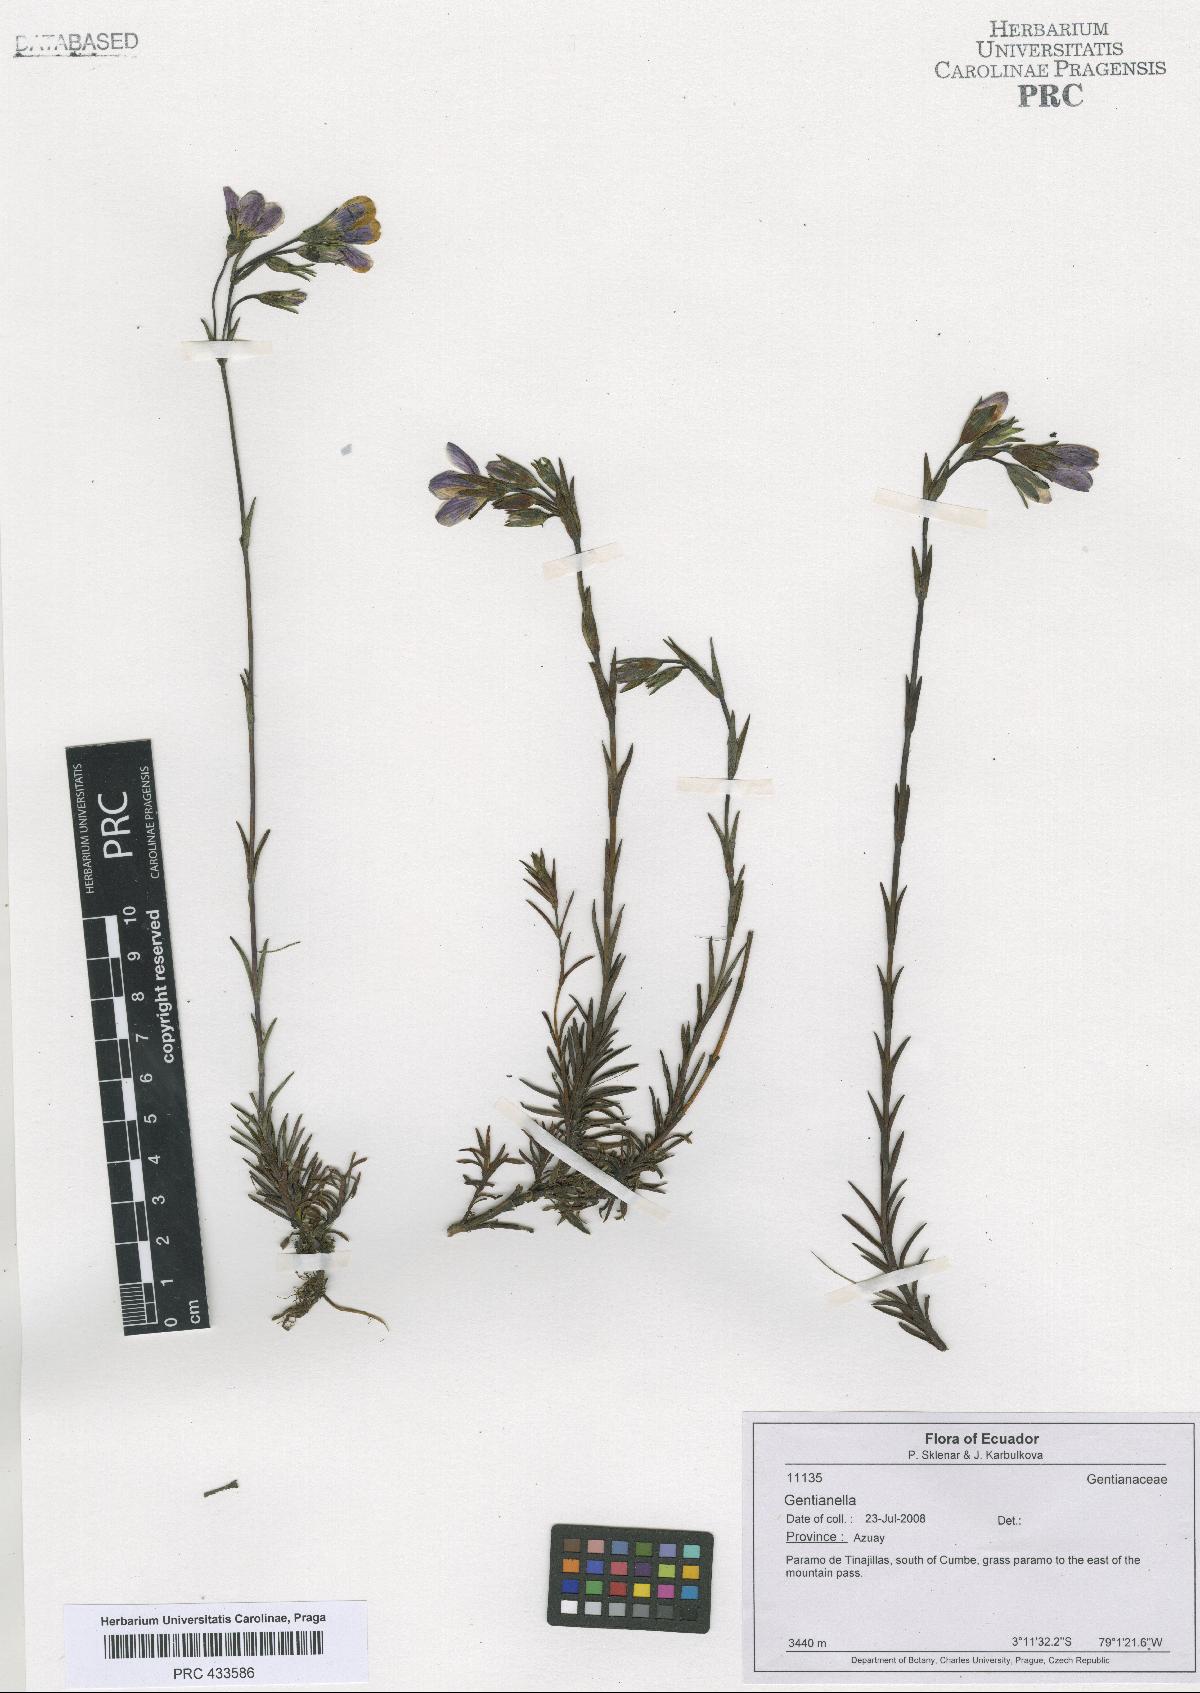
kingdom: Plantae
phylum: Tracheophyta
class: Magnoliopsida
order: Gentianales
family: Gentianaceae
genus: Gentianella
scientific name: Gentianella
